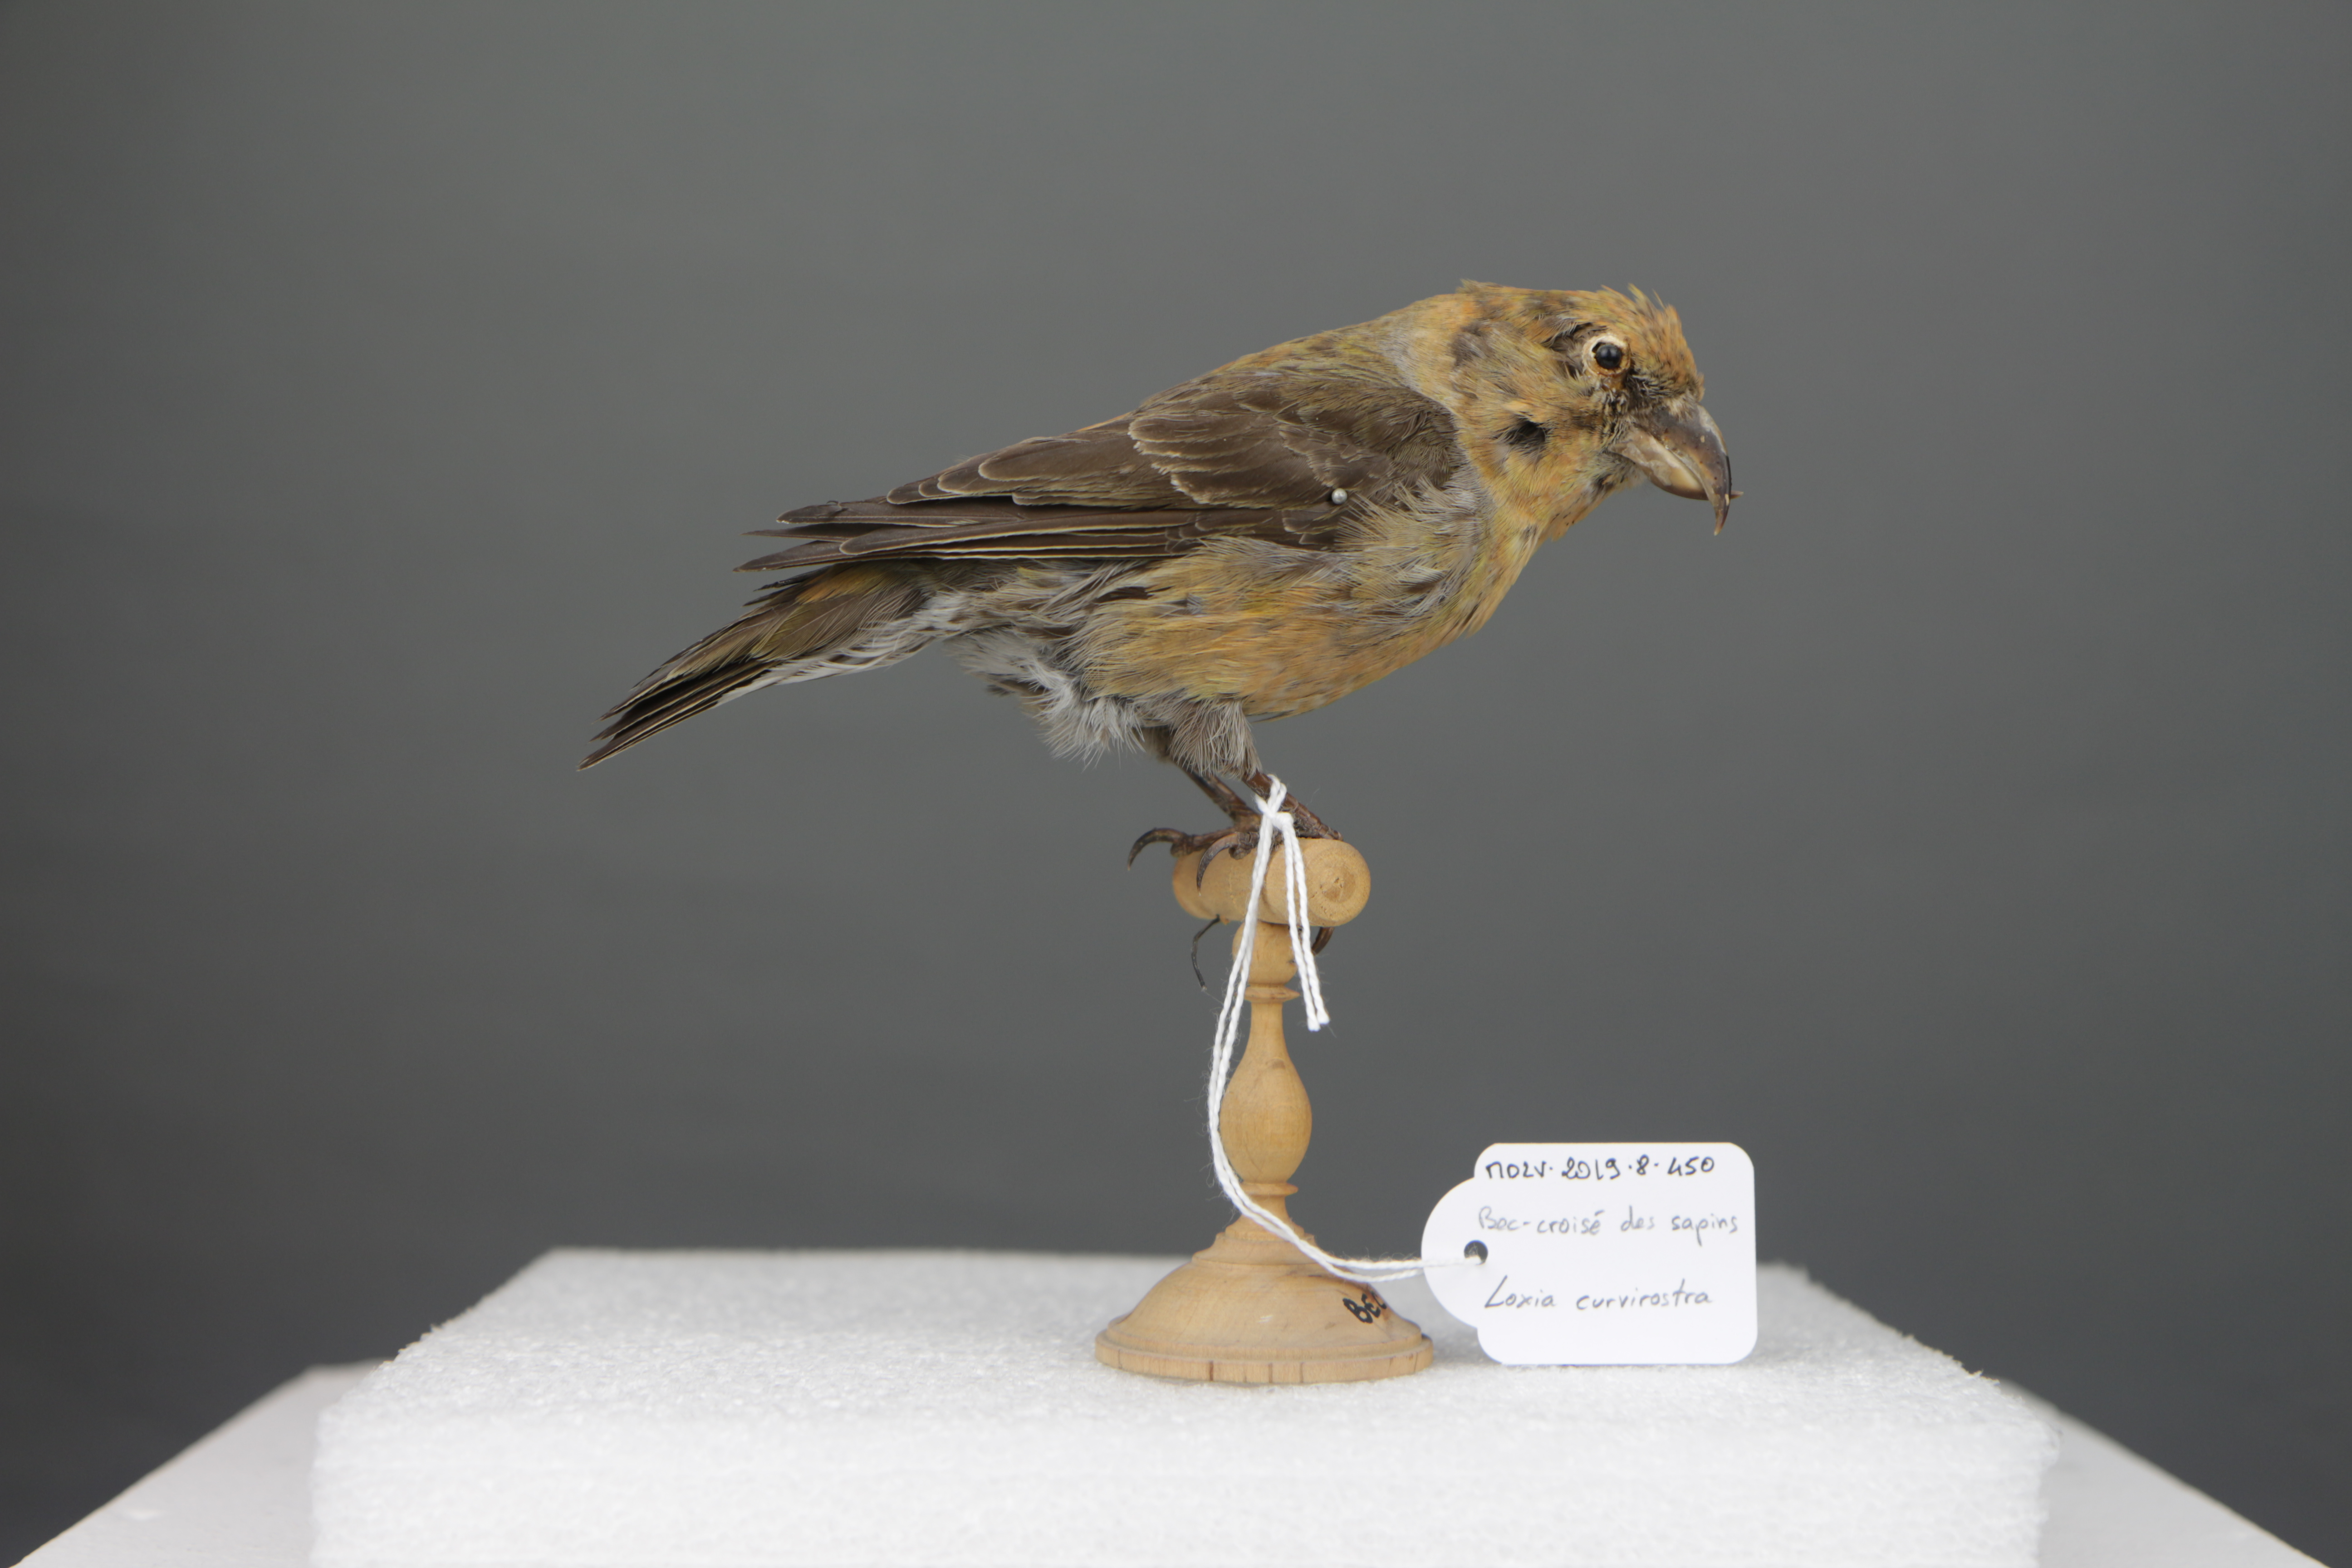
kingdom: Animalia
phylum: Chordata
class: Aves
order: Passeriformes
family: Fringillidae
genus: Loxia
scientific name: Loxia curvirostra
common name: Red crossbill
